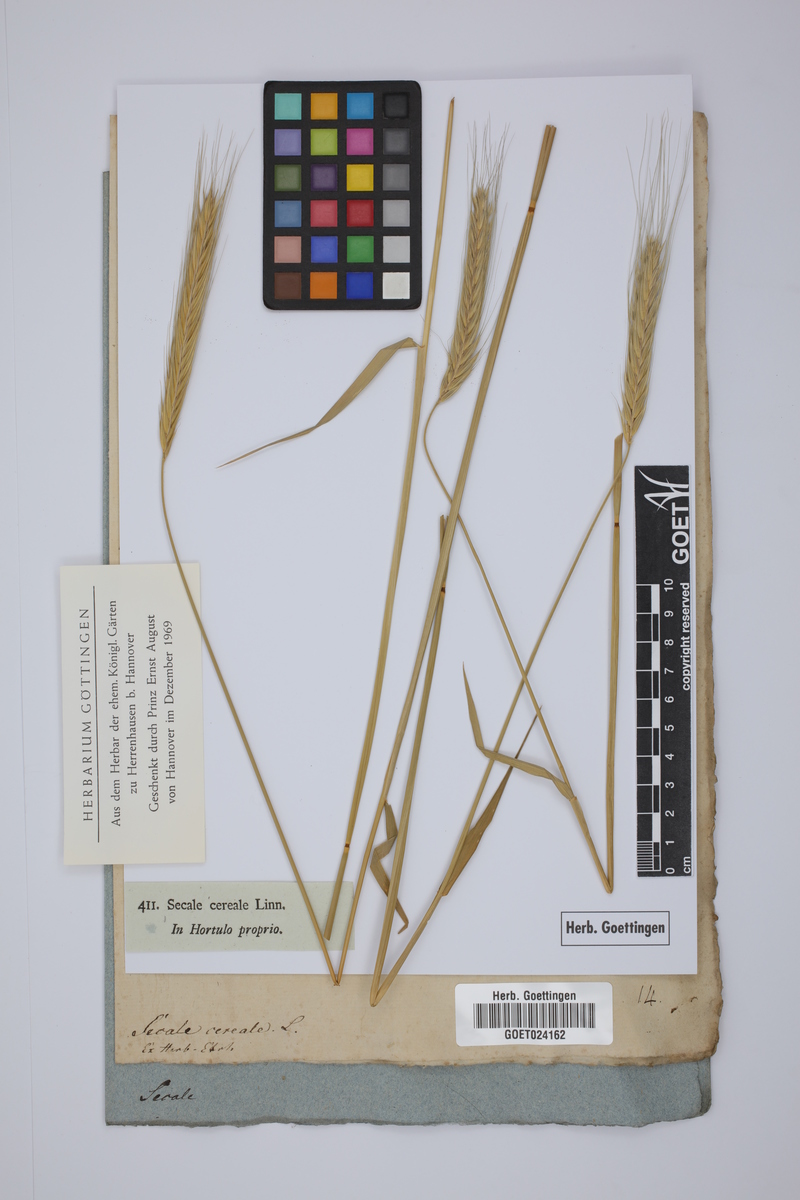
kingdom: Plantae
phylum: Tracheophyta
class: Liliopsida
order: Poales
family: Poaceae
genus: Secale
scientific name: Secale cereale
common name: Rye
